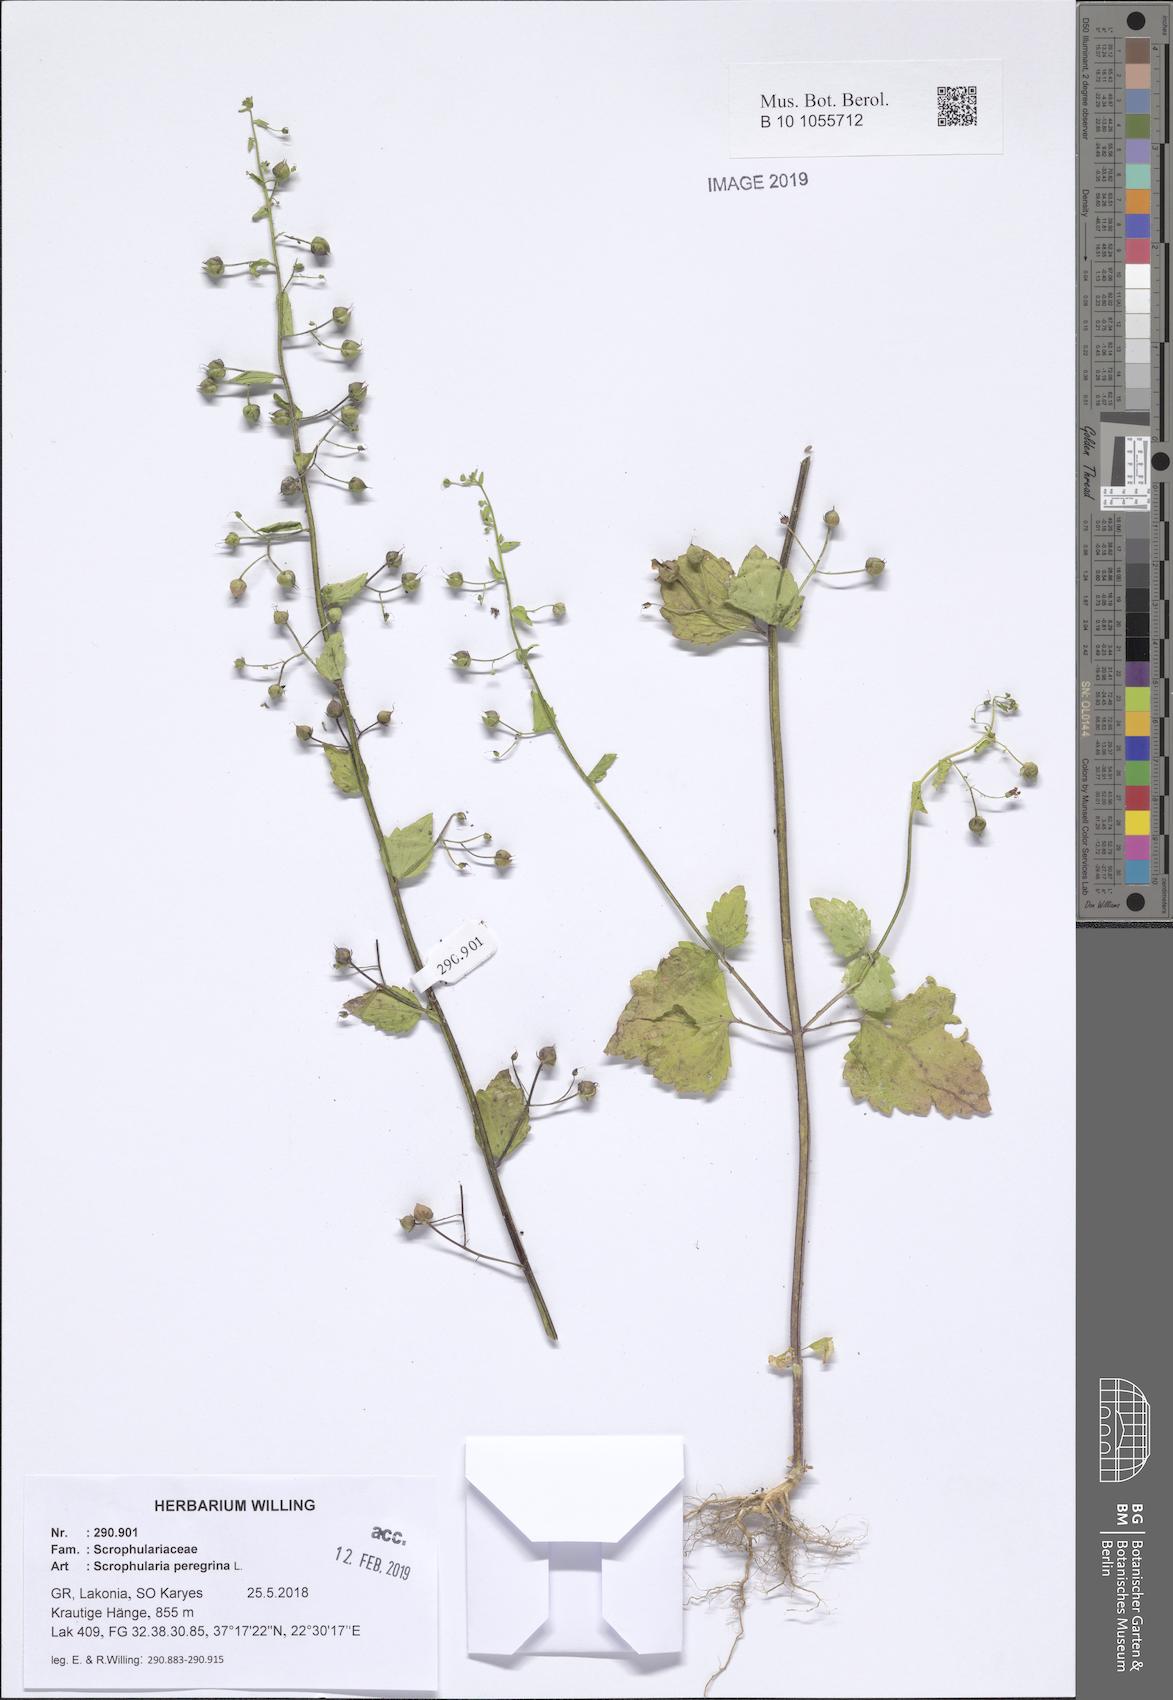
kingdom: Plantae
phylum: Tracheophyta
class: Magnoliopsida
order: Lamiales
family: Scrophulariaceae
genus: Scrophularia
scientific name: Scrophularia peregrina
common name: Mediterranean figwort
